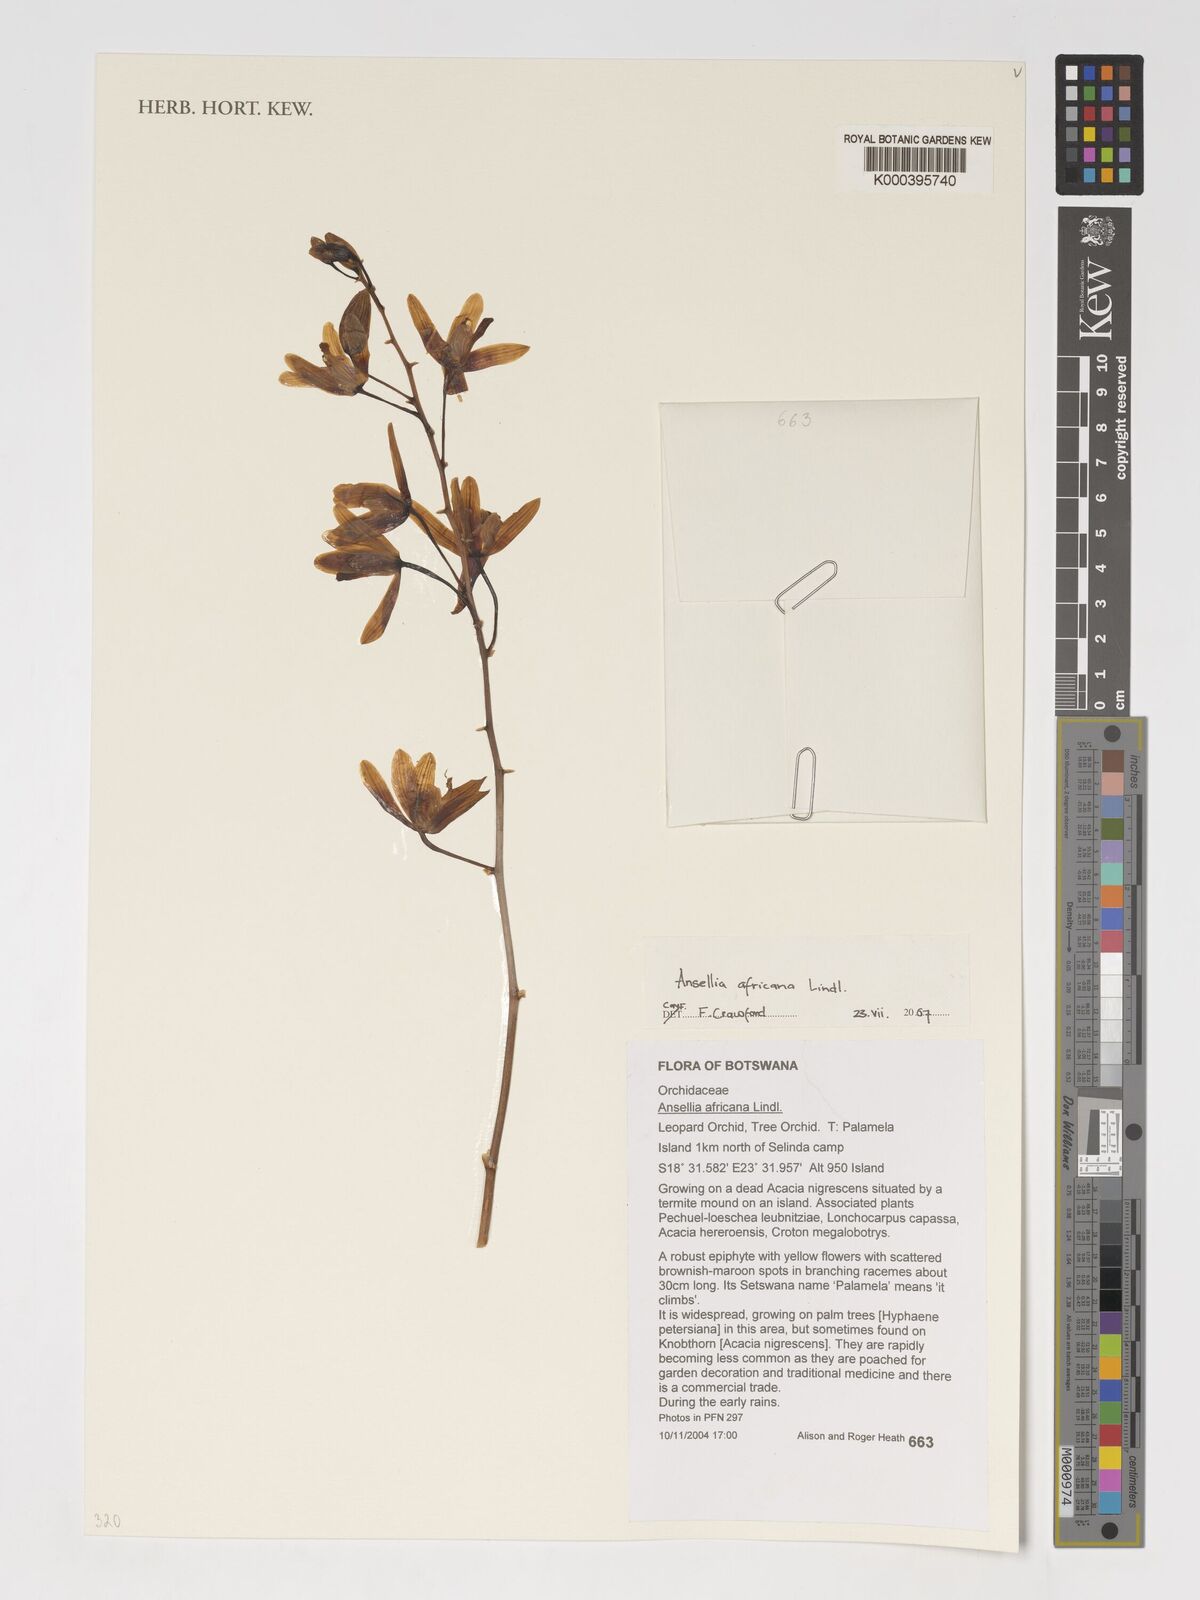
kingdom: Plantae
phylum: Tracheophyta
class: Liliopsida
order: Asparagales
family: Orchidaceae
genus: Ansellia
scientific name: Ansellia africana
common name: African ansellia
